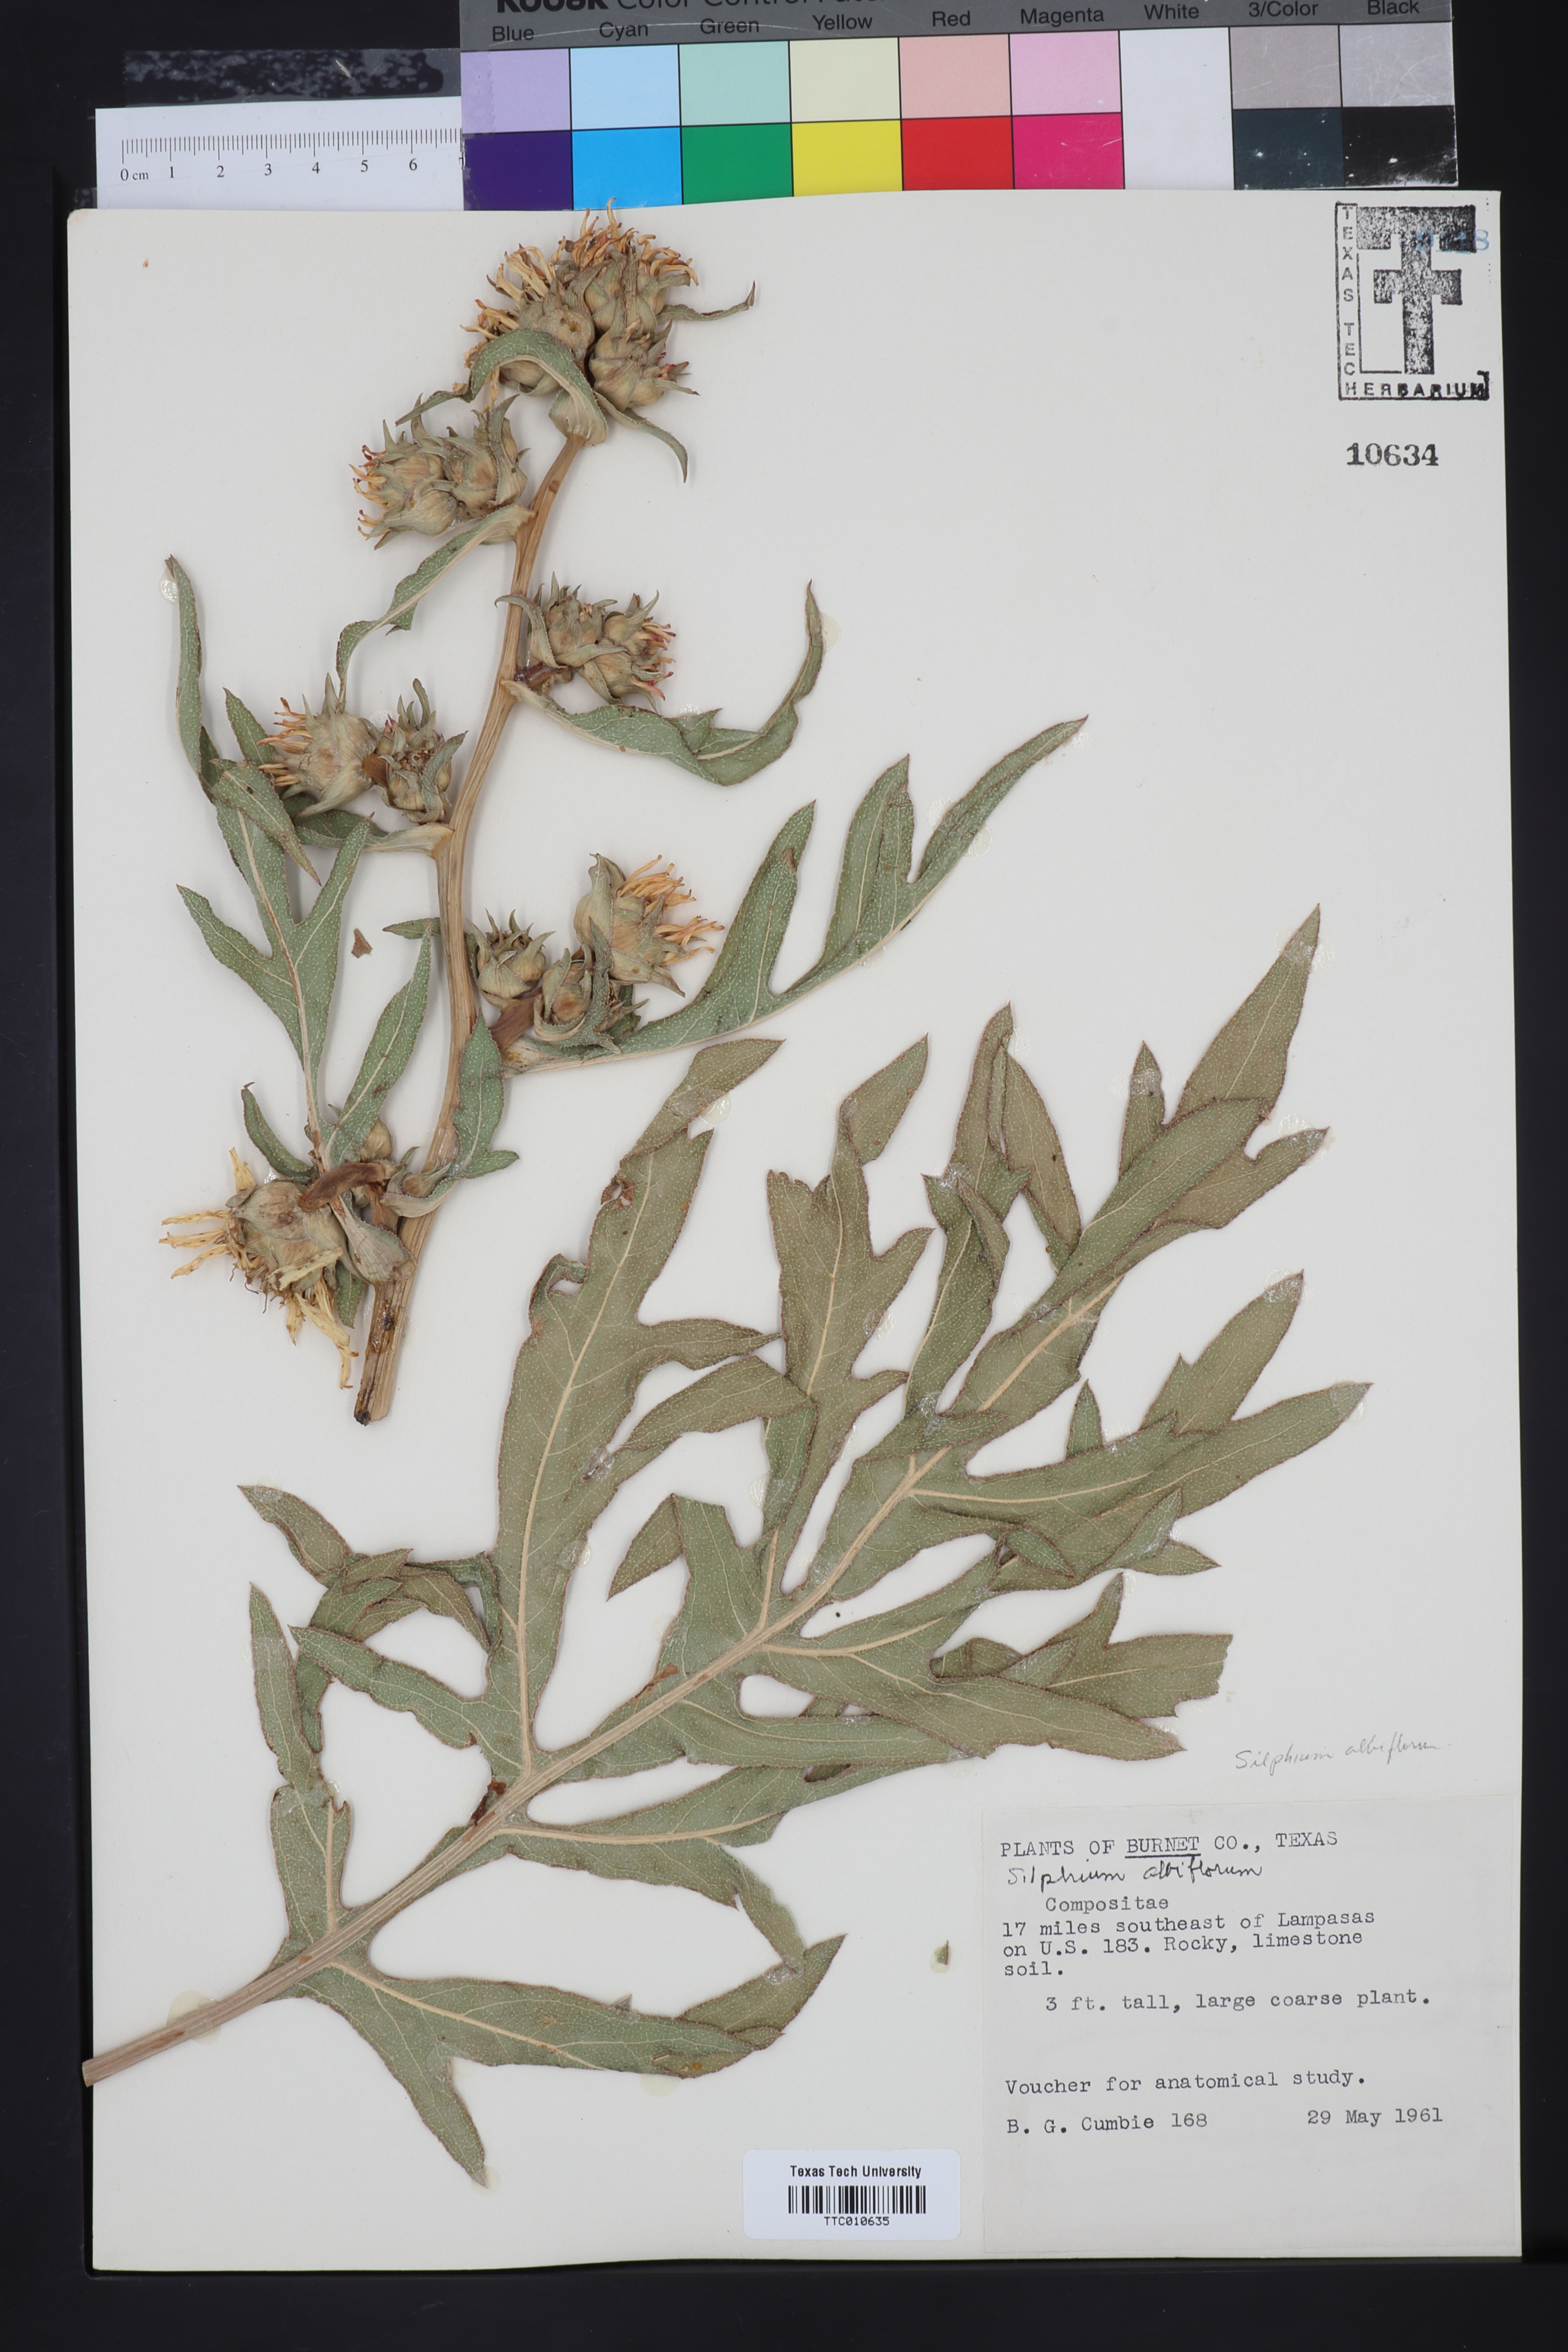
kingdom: Plantae
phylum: Tracheophyta
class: Magnoliopsida
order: Asterales
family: Asteraceae
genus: Silphium
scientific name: Silphium albiflorum
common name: White rosinweed
